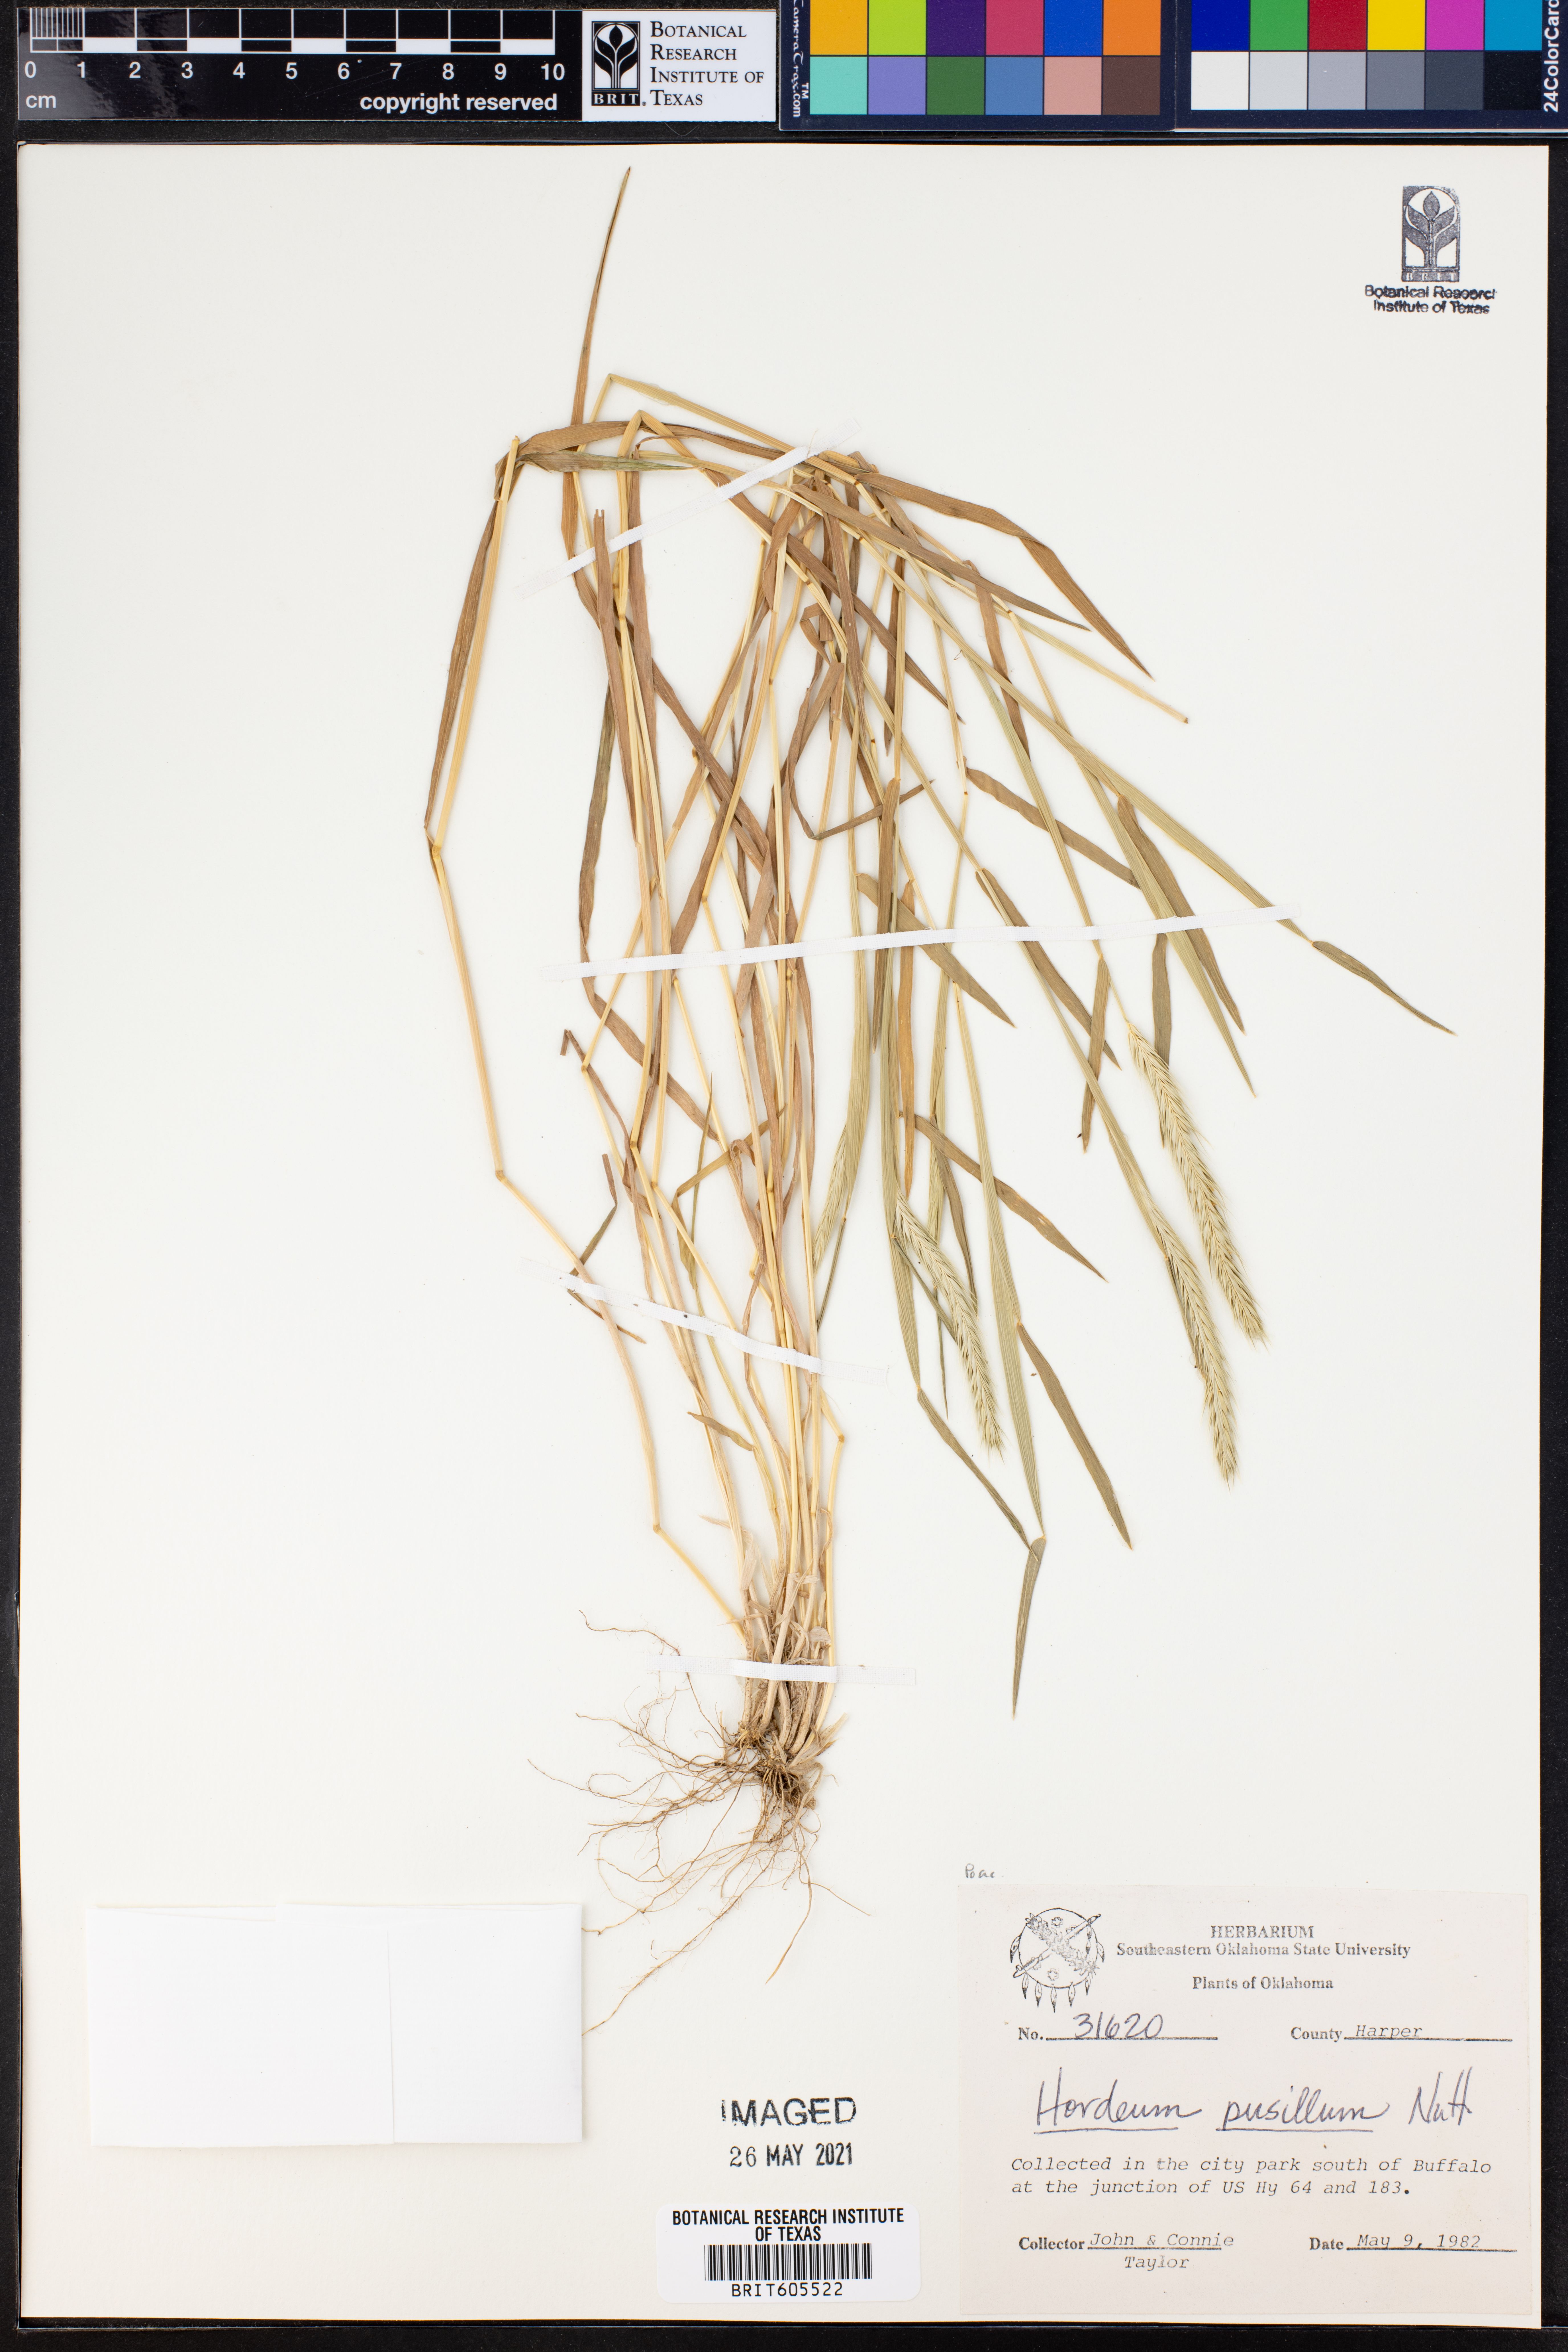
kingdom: Plantae
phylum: Tracheophyta
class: Liliopsida
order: Poales
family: Poaceae
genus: Hordeum
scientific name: Hordeum pusillum
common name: Little barley
